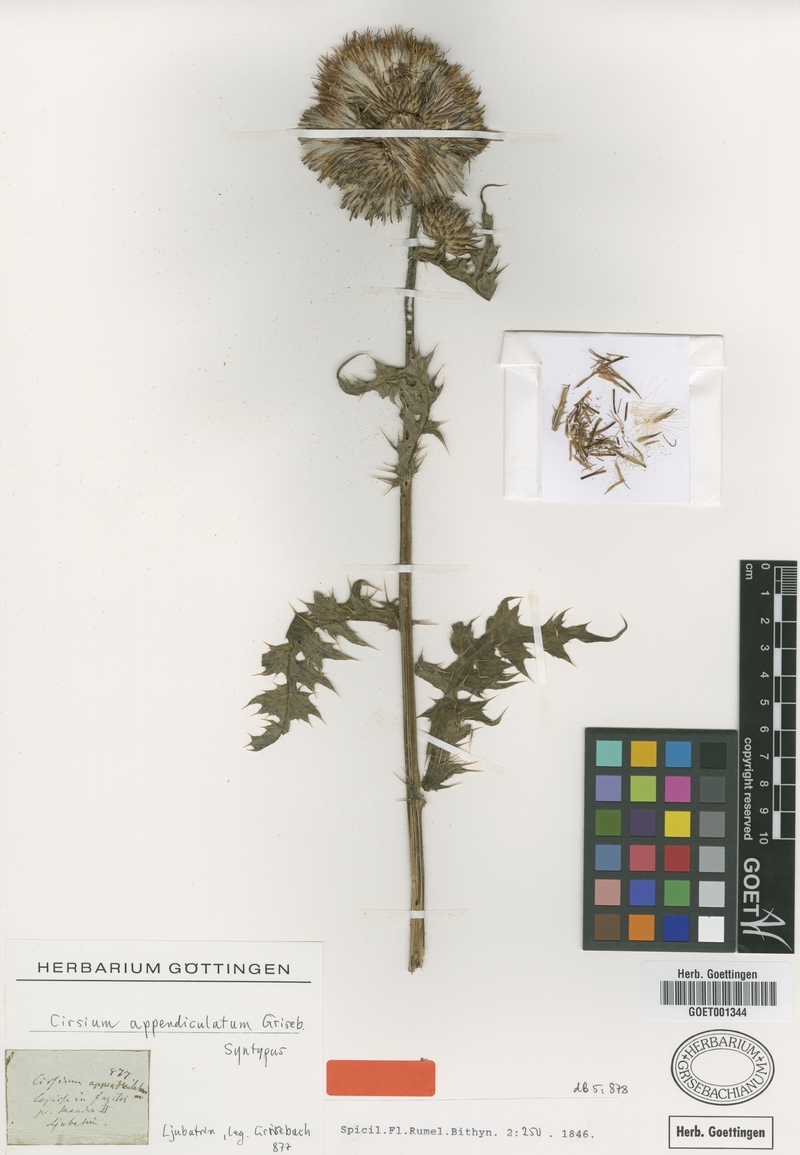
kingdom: Plantae
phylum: Tracheophyta
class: Magnoliopsida
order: Asterales
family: Asteraceae
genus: Cirsium
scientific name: Cirsium appendiculatum
